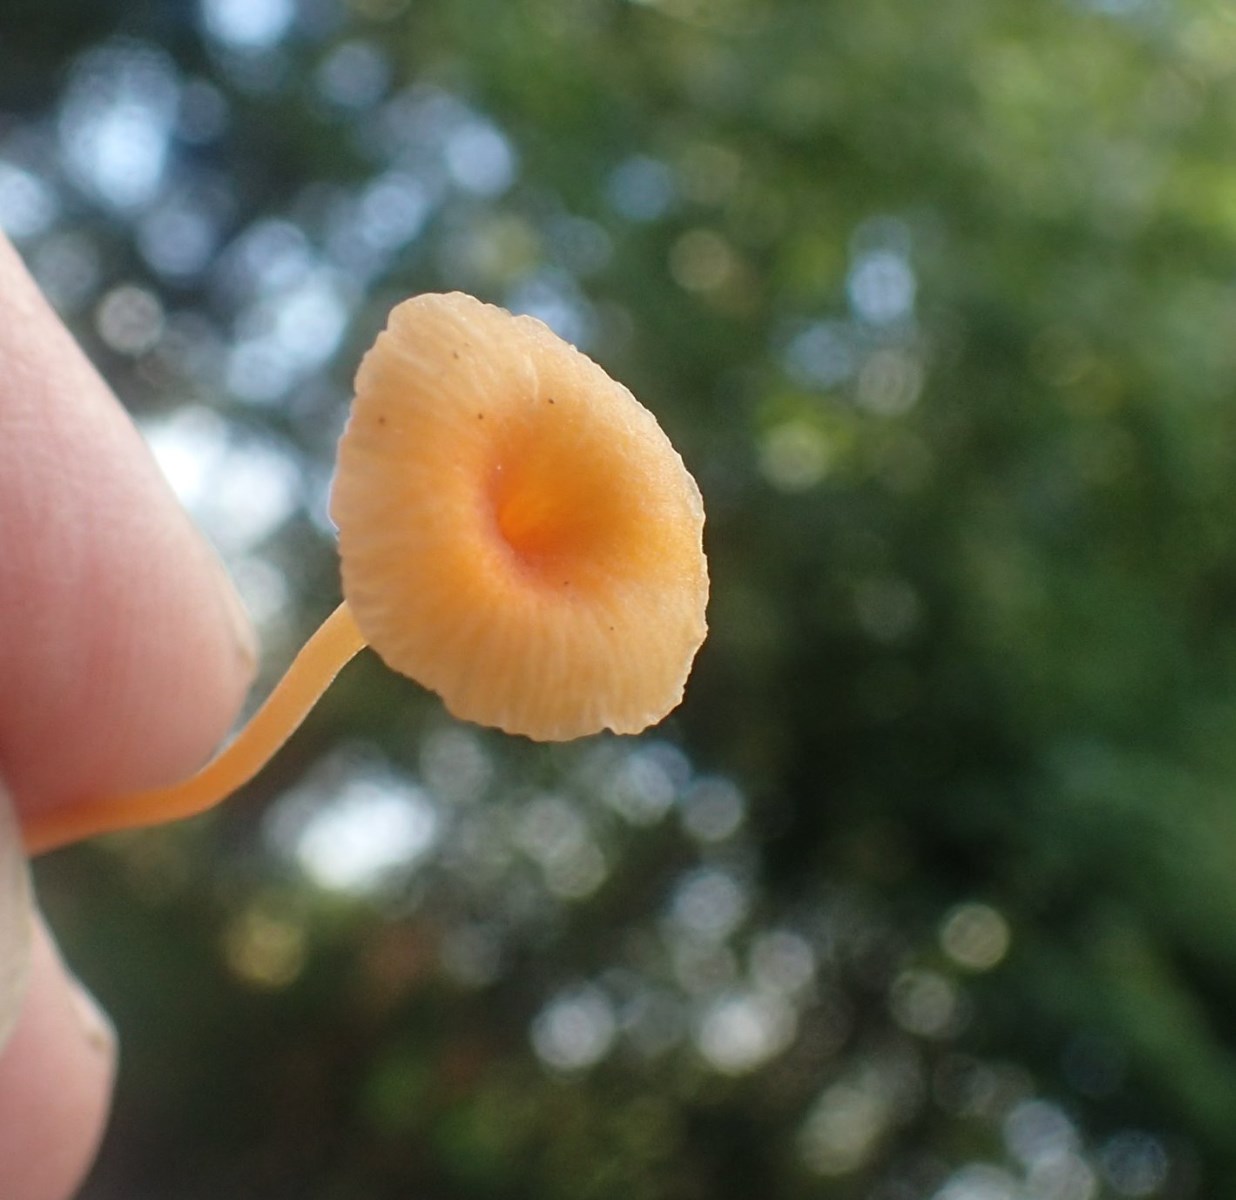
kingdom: Fungi
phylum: Basidiomycota
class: Agaricomycetes
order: Hymenochaetales
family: Rickenellaceae
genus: Rickenella
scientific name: Rickenella fibula
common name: orange mosnavlehat
